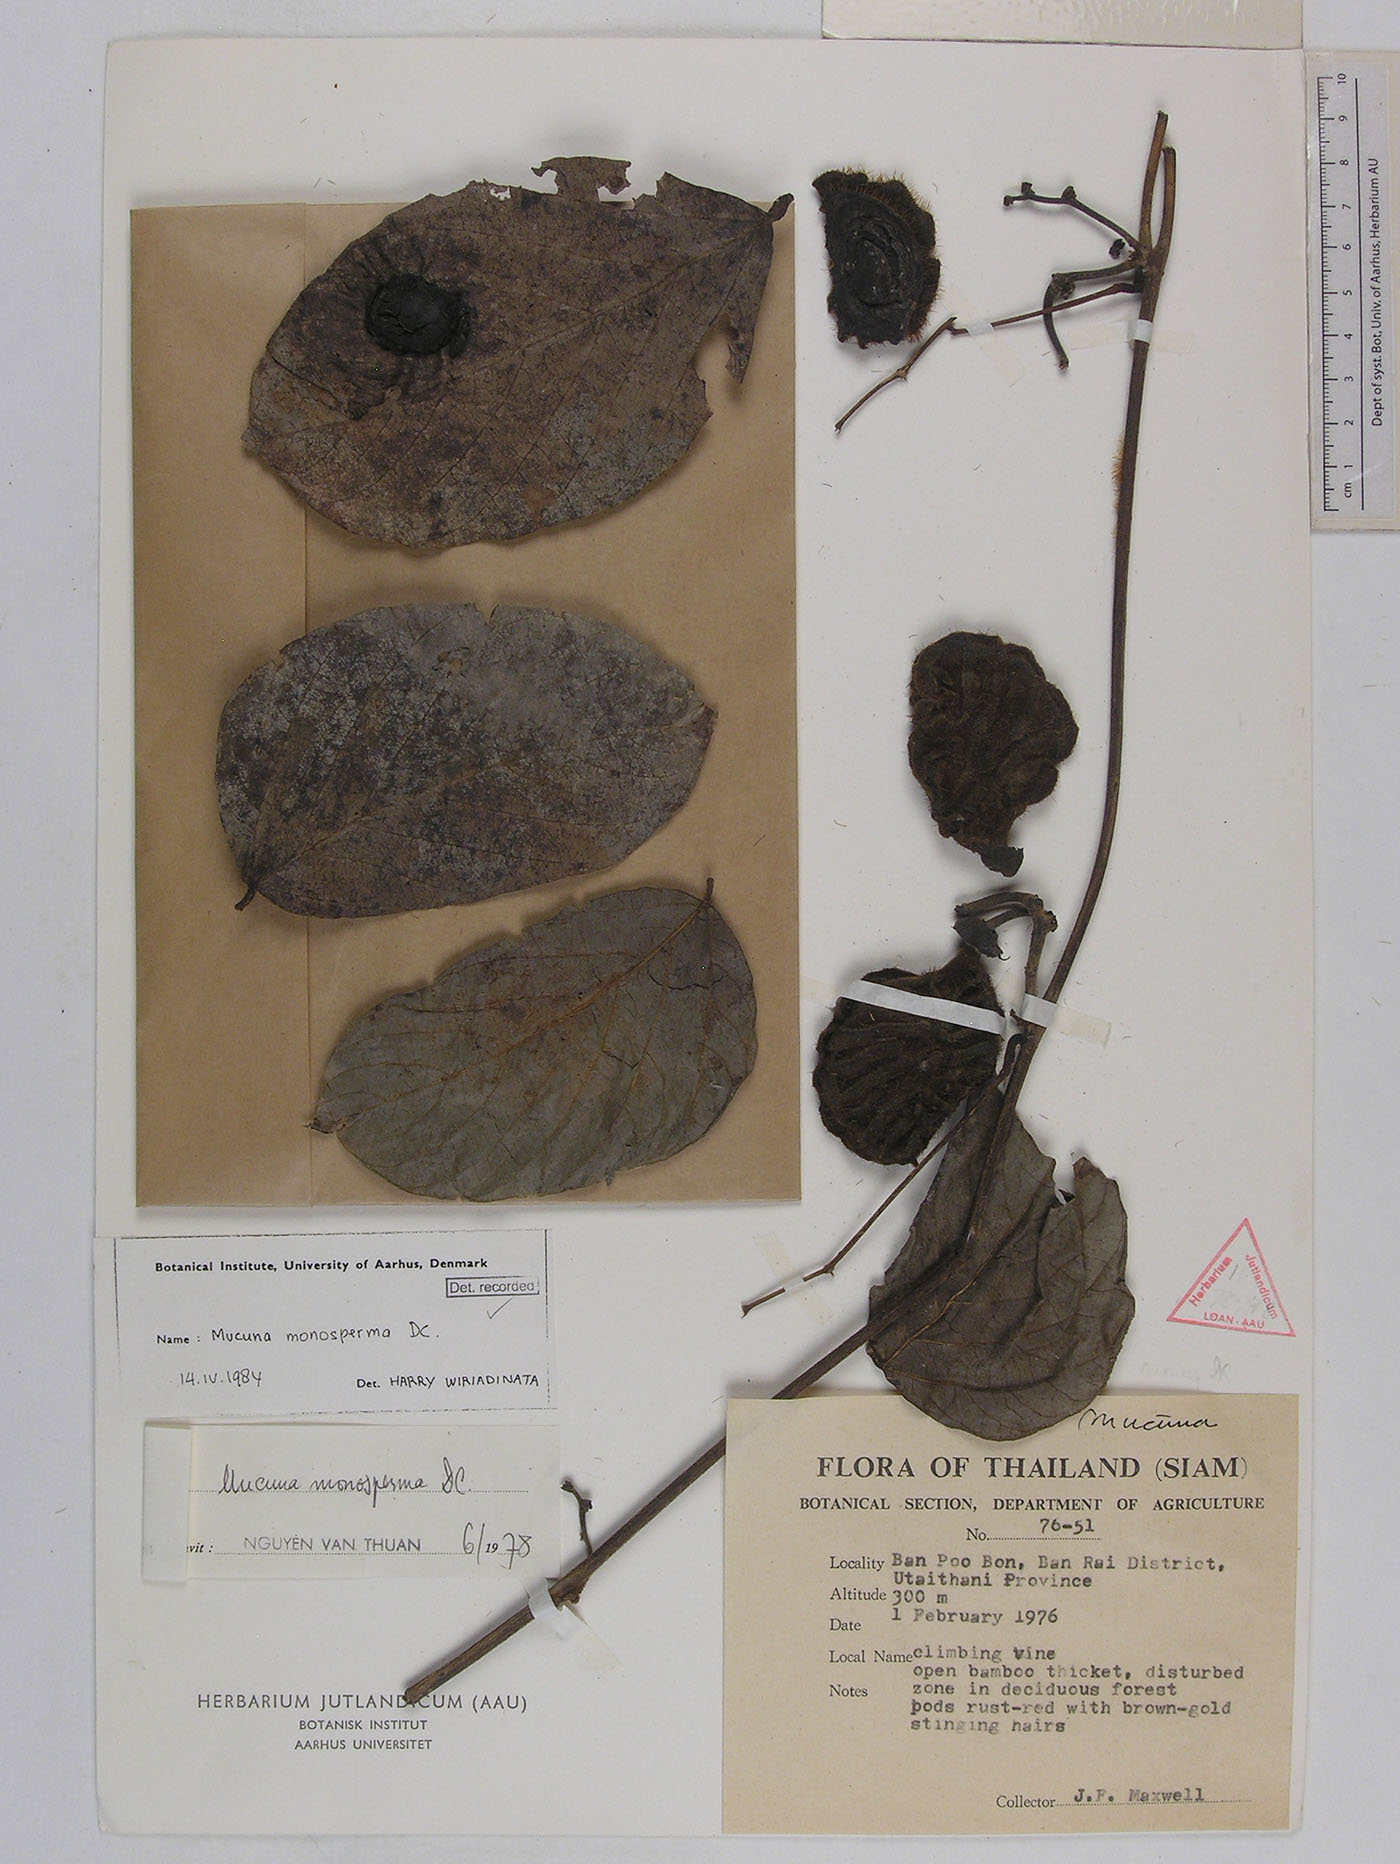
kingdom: Plantae
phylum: Tracheophyta
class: Magnoliopsida
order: Fabales
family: Fabaceae
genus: Mucuna
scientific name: Mucuna monosperma
